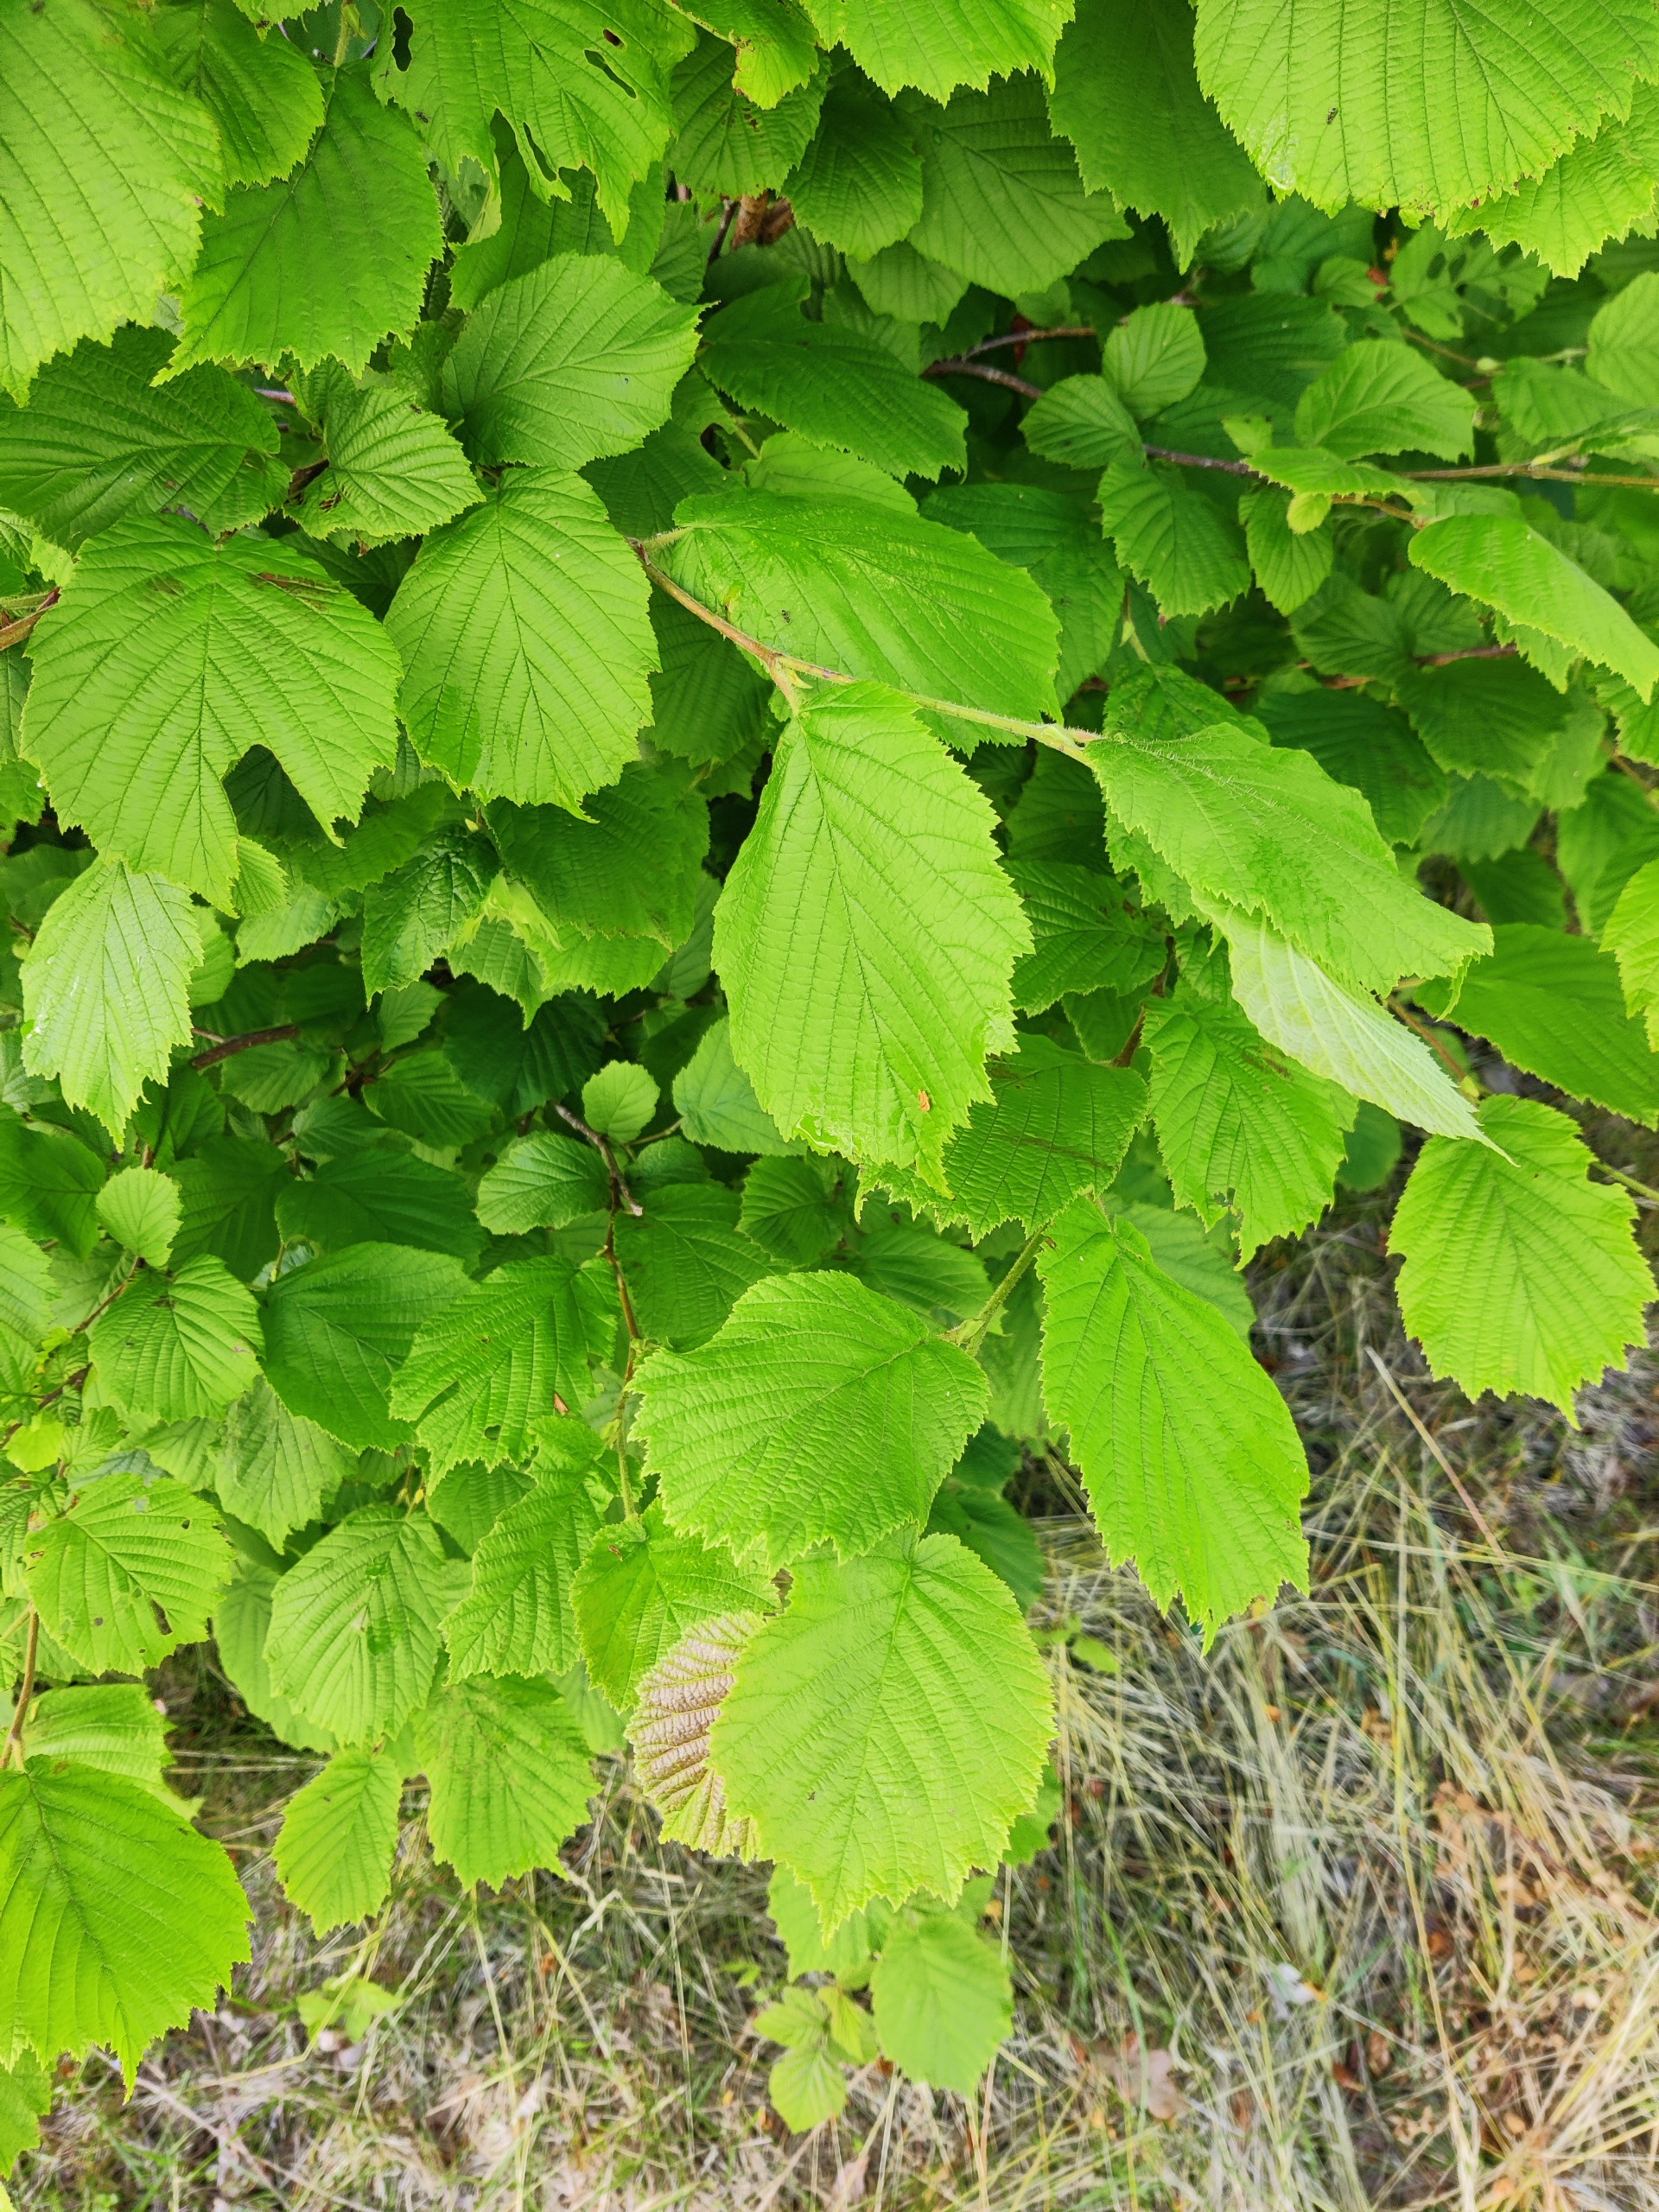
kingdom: Plantae
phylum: Tracheophyta
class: Magnoliopsida
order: Fagales
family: Betulaceae
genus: Corylus
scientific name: Corylus avellana
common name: Hassel
